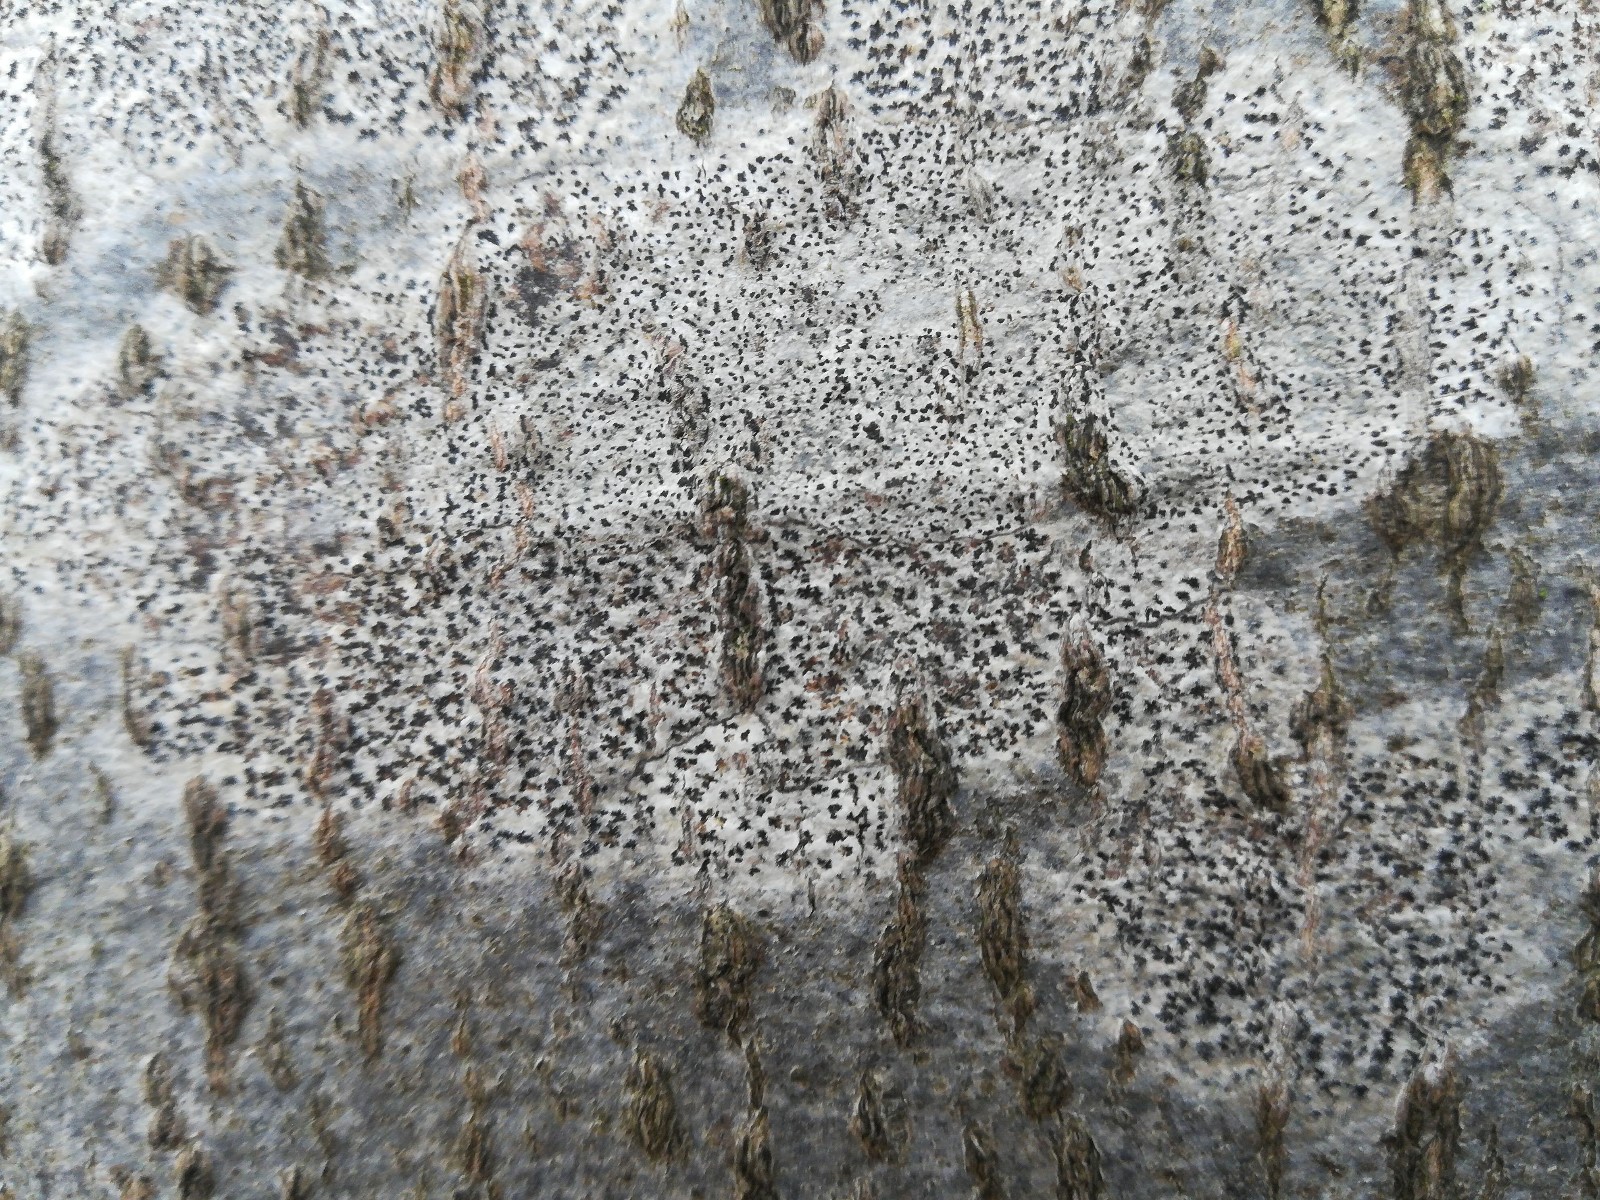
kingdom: Fungi
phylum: Ascomycota
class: Arthoniomycetes
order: Arthoniales
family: Arthoniaceae
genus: Arthonia
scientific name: Arthonia radiata
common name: stjerne-pletlav
